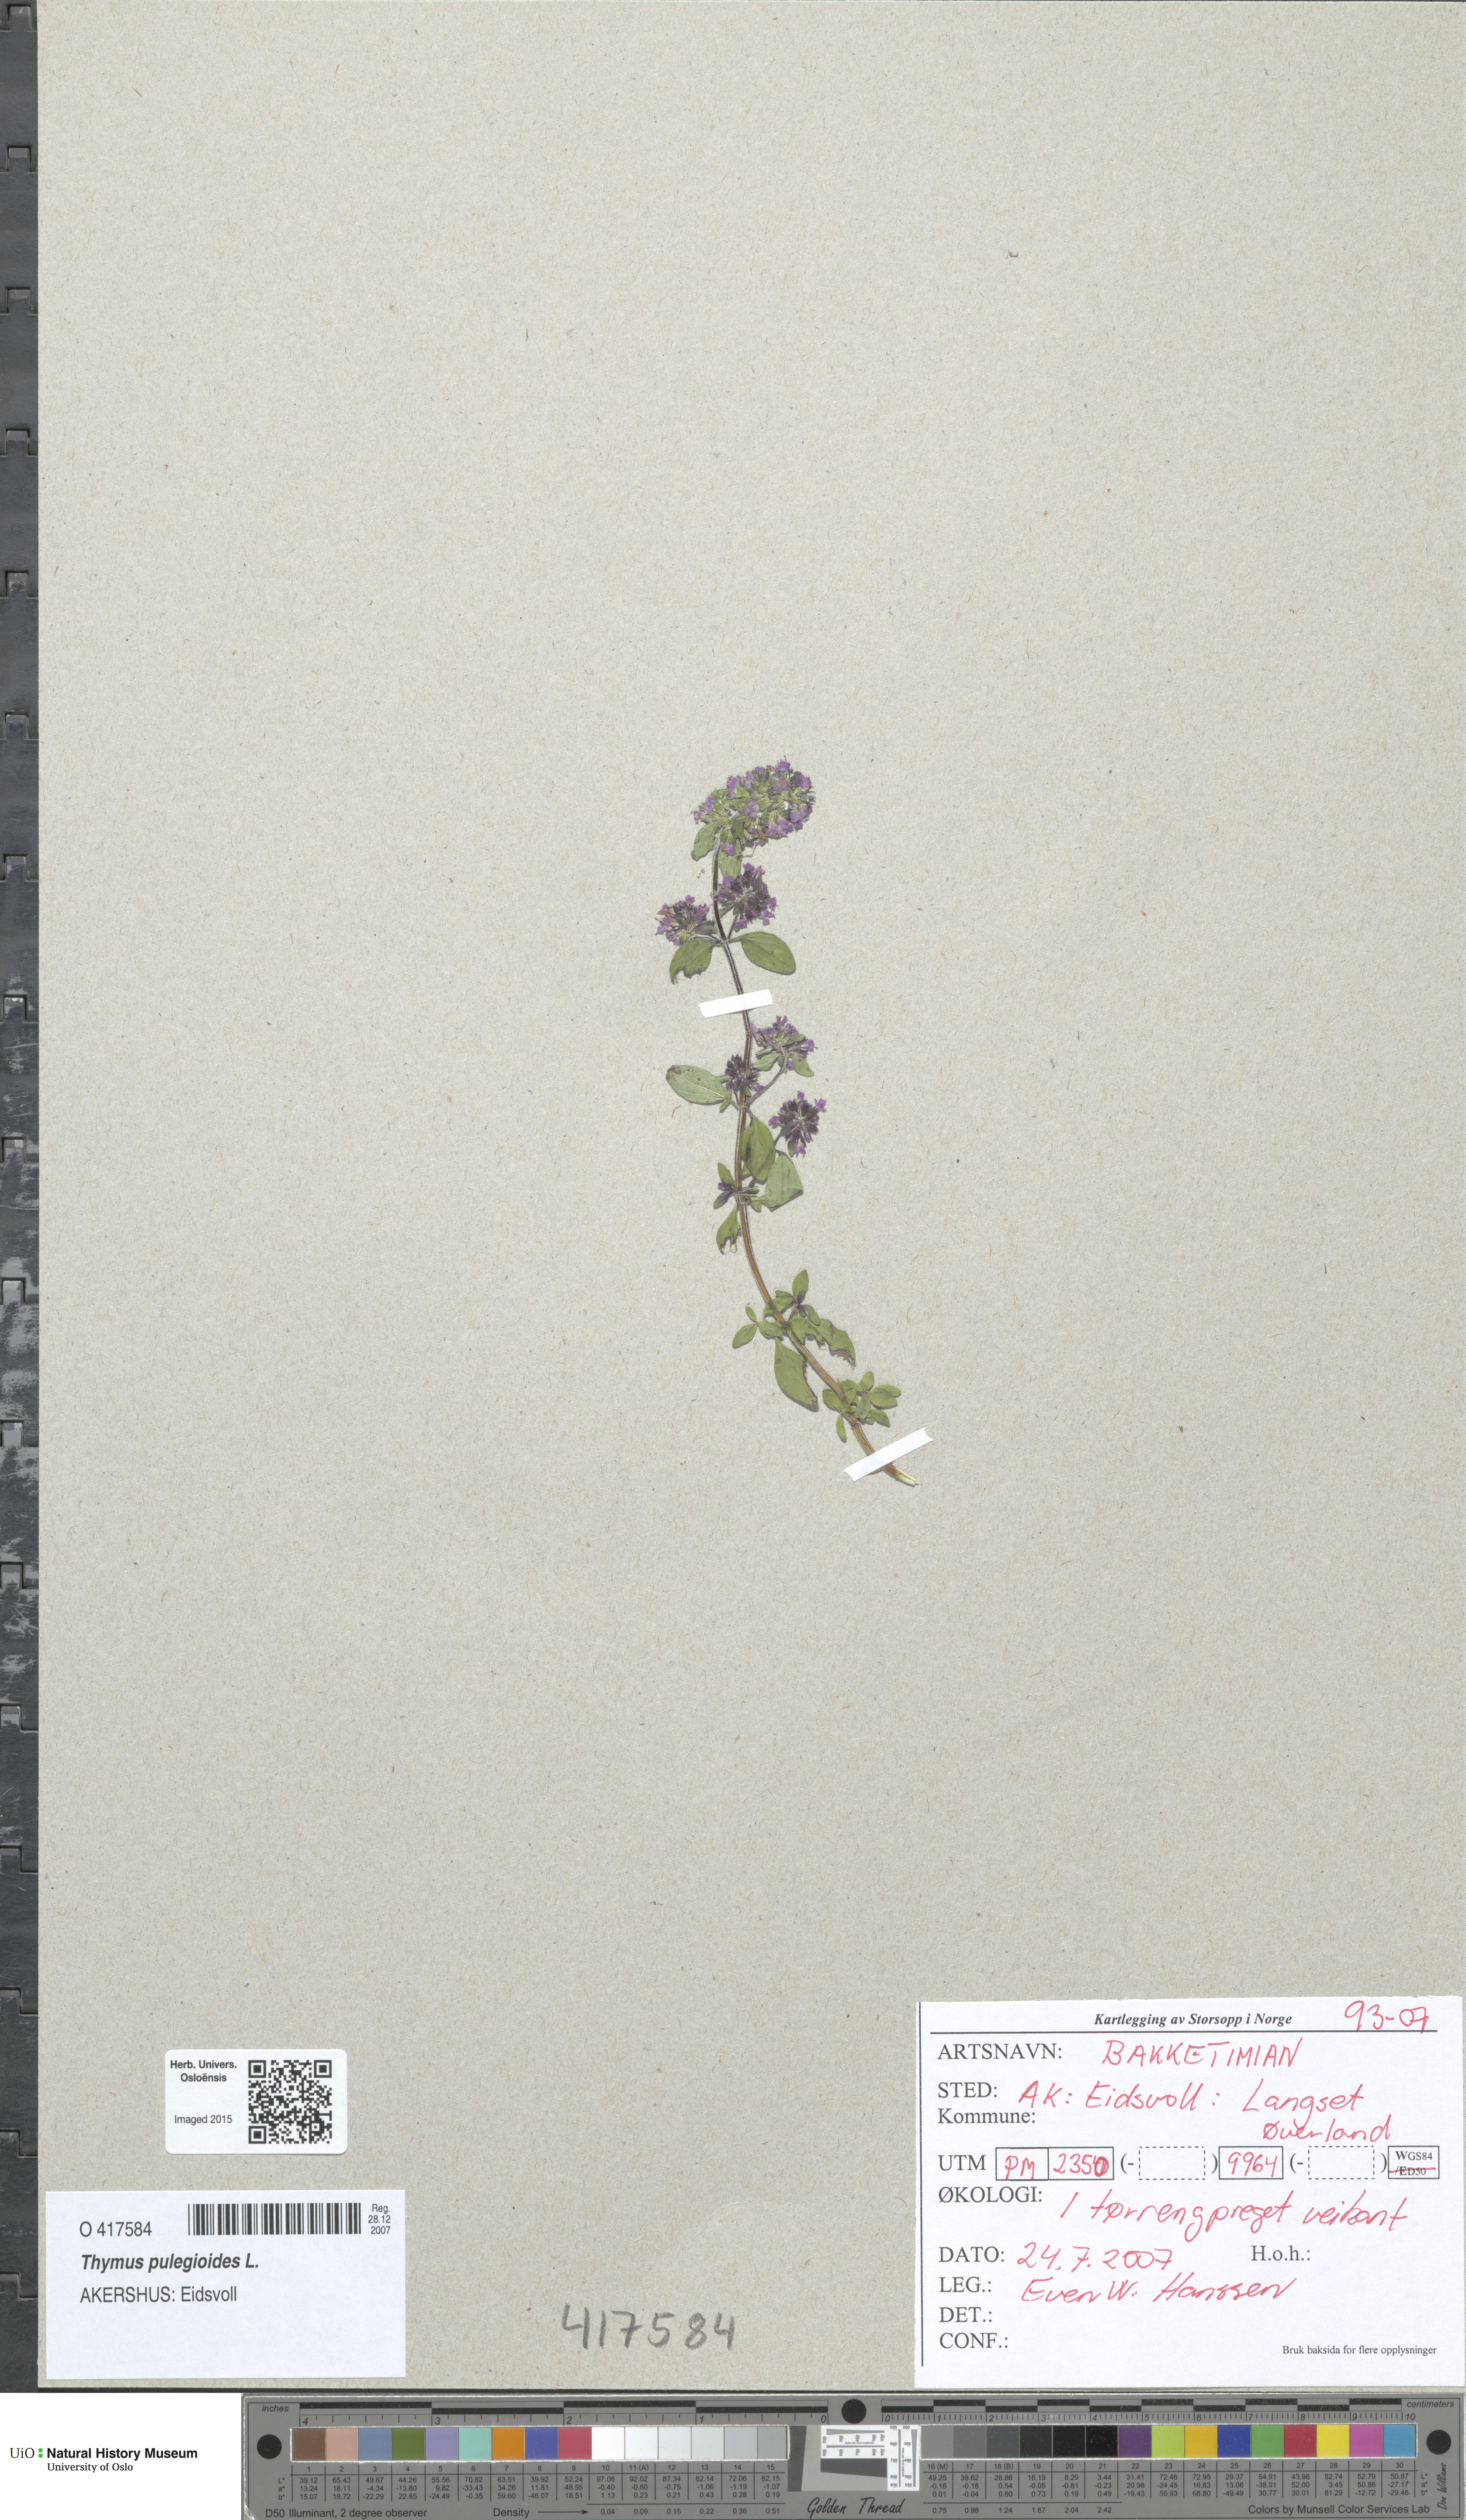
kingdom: Plantae
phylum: Tracheophyta
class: Magnoliopsida
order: Lamiales
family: Lamiaceae
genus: Thymus
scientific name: Thymus pulegioides
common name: Large thyme
